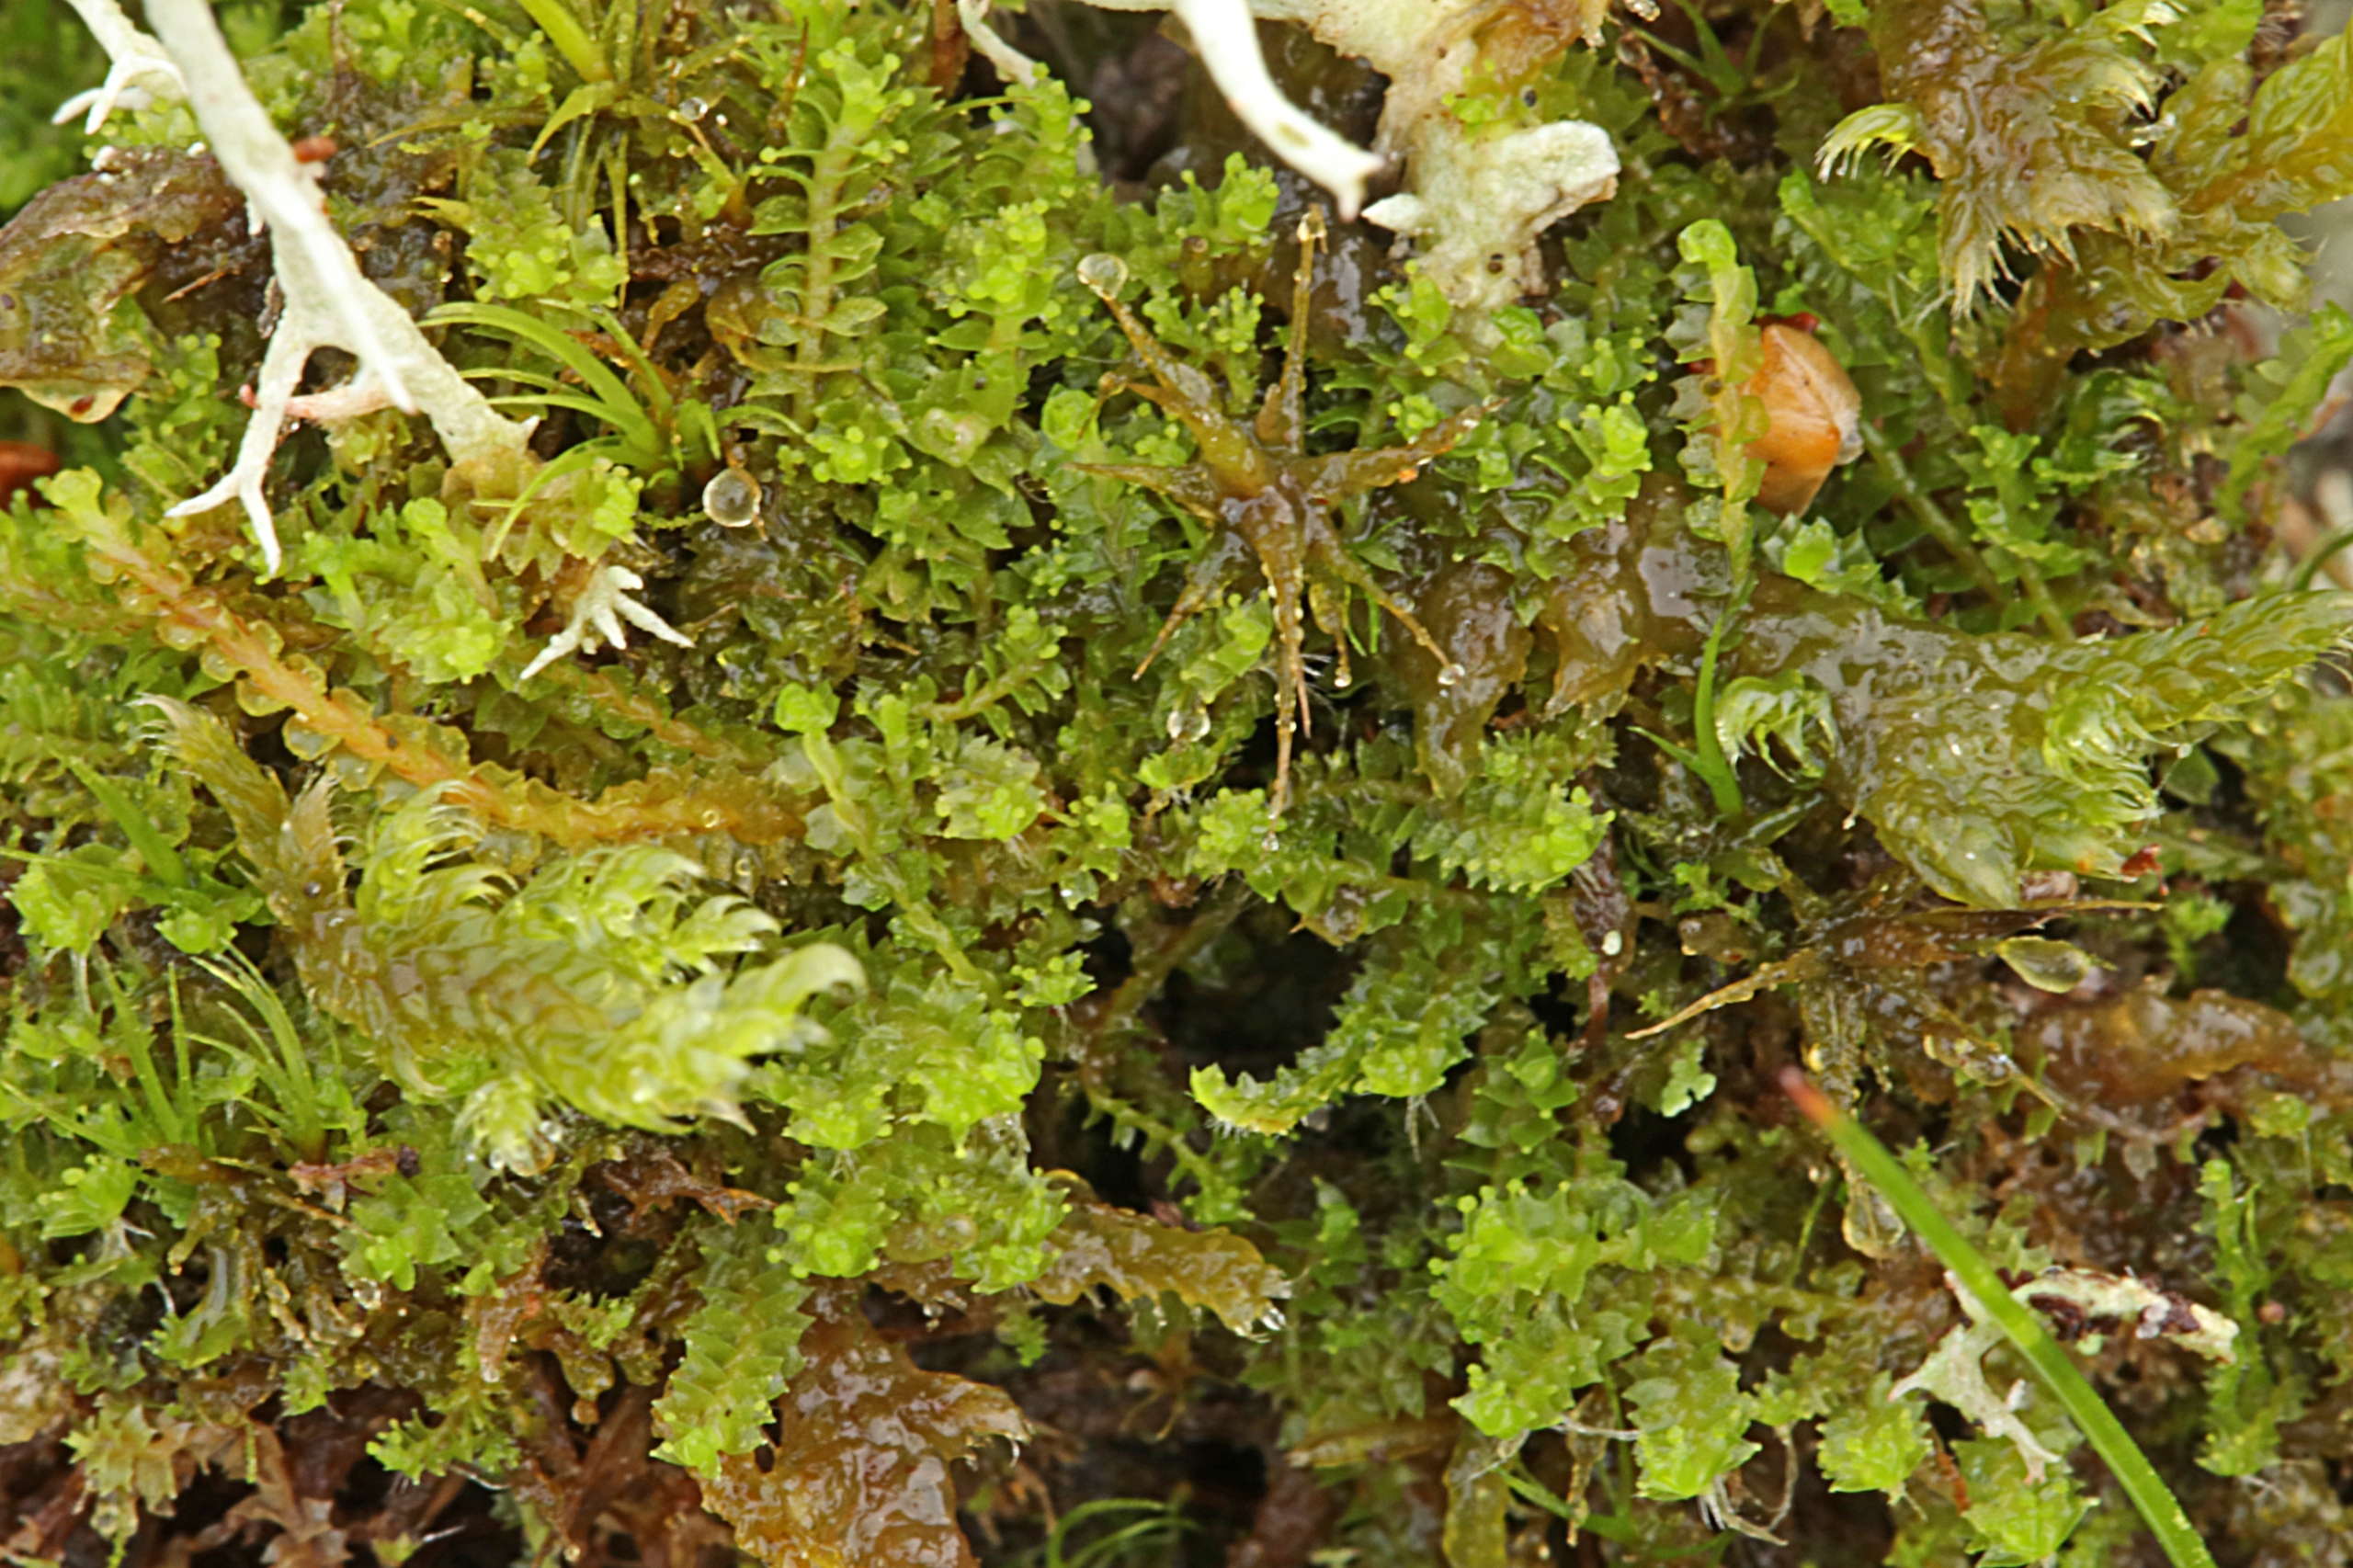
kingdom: Plantae
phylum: Marchantiophyta
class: Jungermanniopsida
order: Jungermanniales
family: Lophoziaceae
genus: Lophozia
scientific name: Lophozia ventricosa
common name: Grønkornet foldbæger
